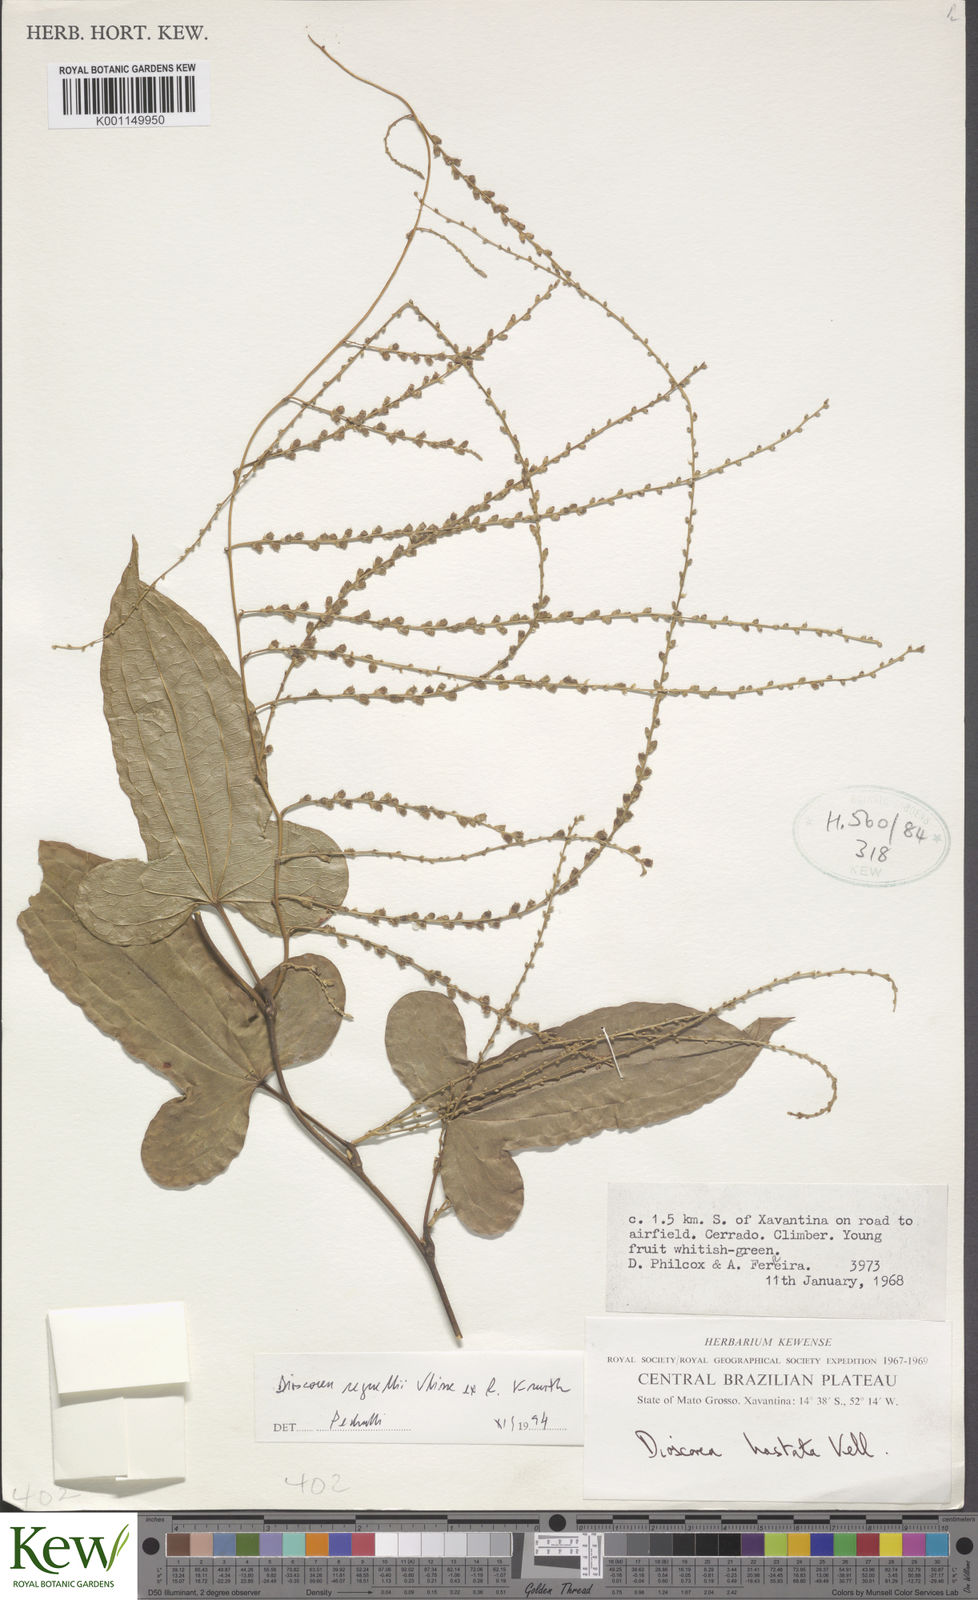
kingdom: Plantae
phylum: Tracheophyta
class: Liliopsida
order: Dioscoreales
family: Dioscoreaceae
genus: Dioscorea
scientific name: Dioscorea hastata
